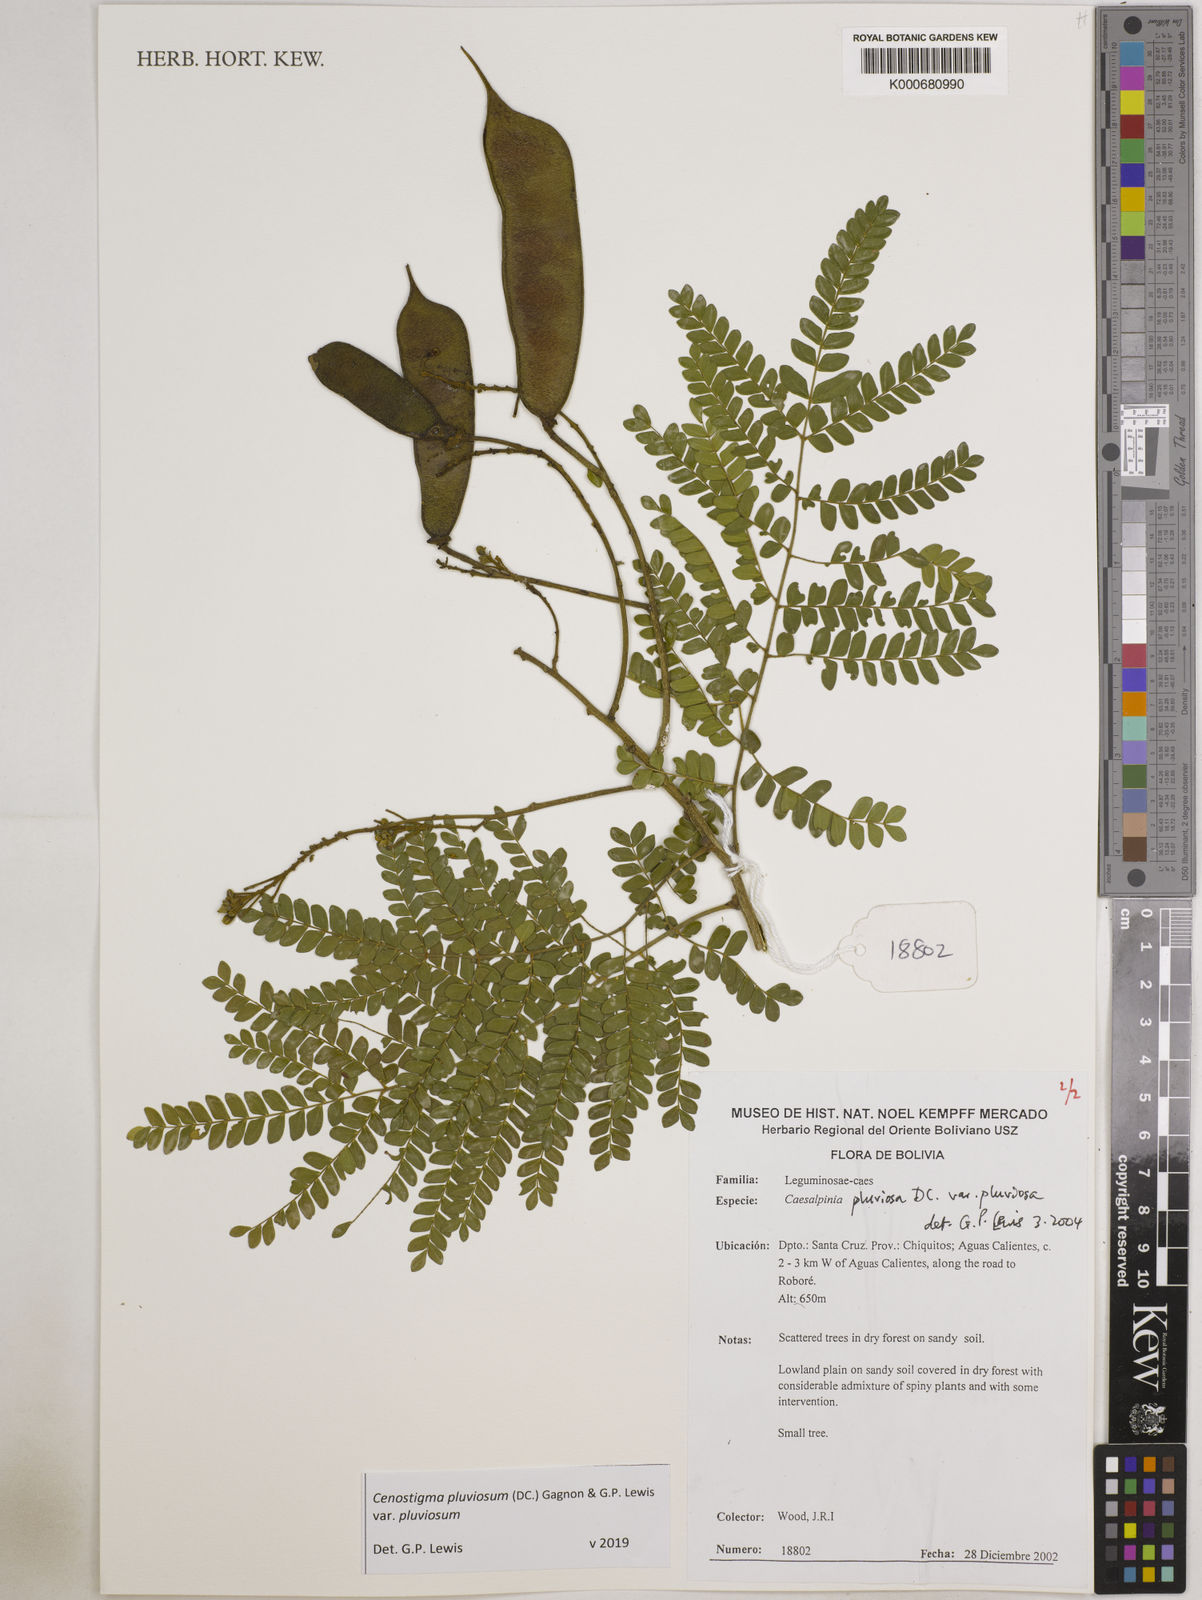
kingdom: Plantae
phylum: Tracheophyta
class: Magnoliopsida
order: Fabales
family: Fabaceae
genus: Cenostigma
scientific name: Cenostigma pluviosum
